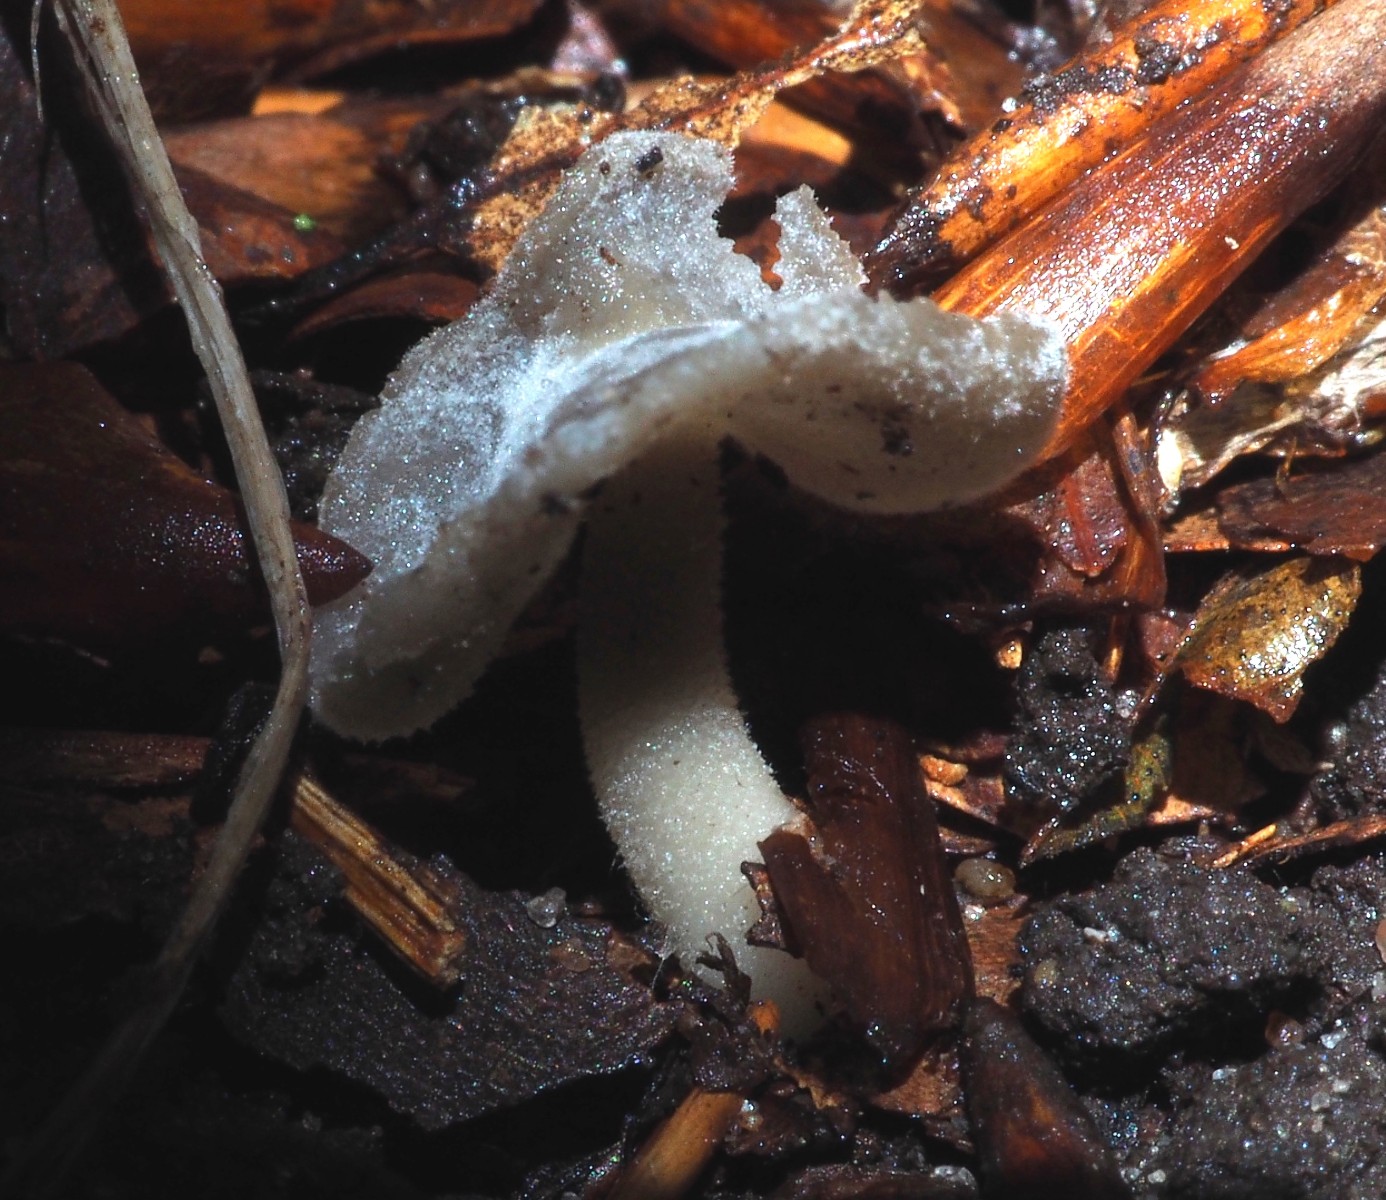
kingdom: Fungi
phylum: Ascomycota
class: Pezizomycetes
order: Pezizales
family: Helvellaceae
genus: Helvella
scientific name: Helvella fibrosa
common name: dunstokket foldhat
